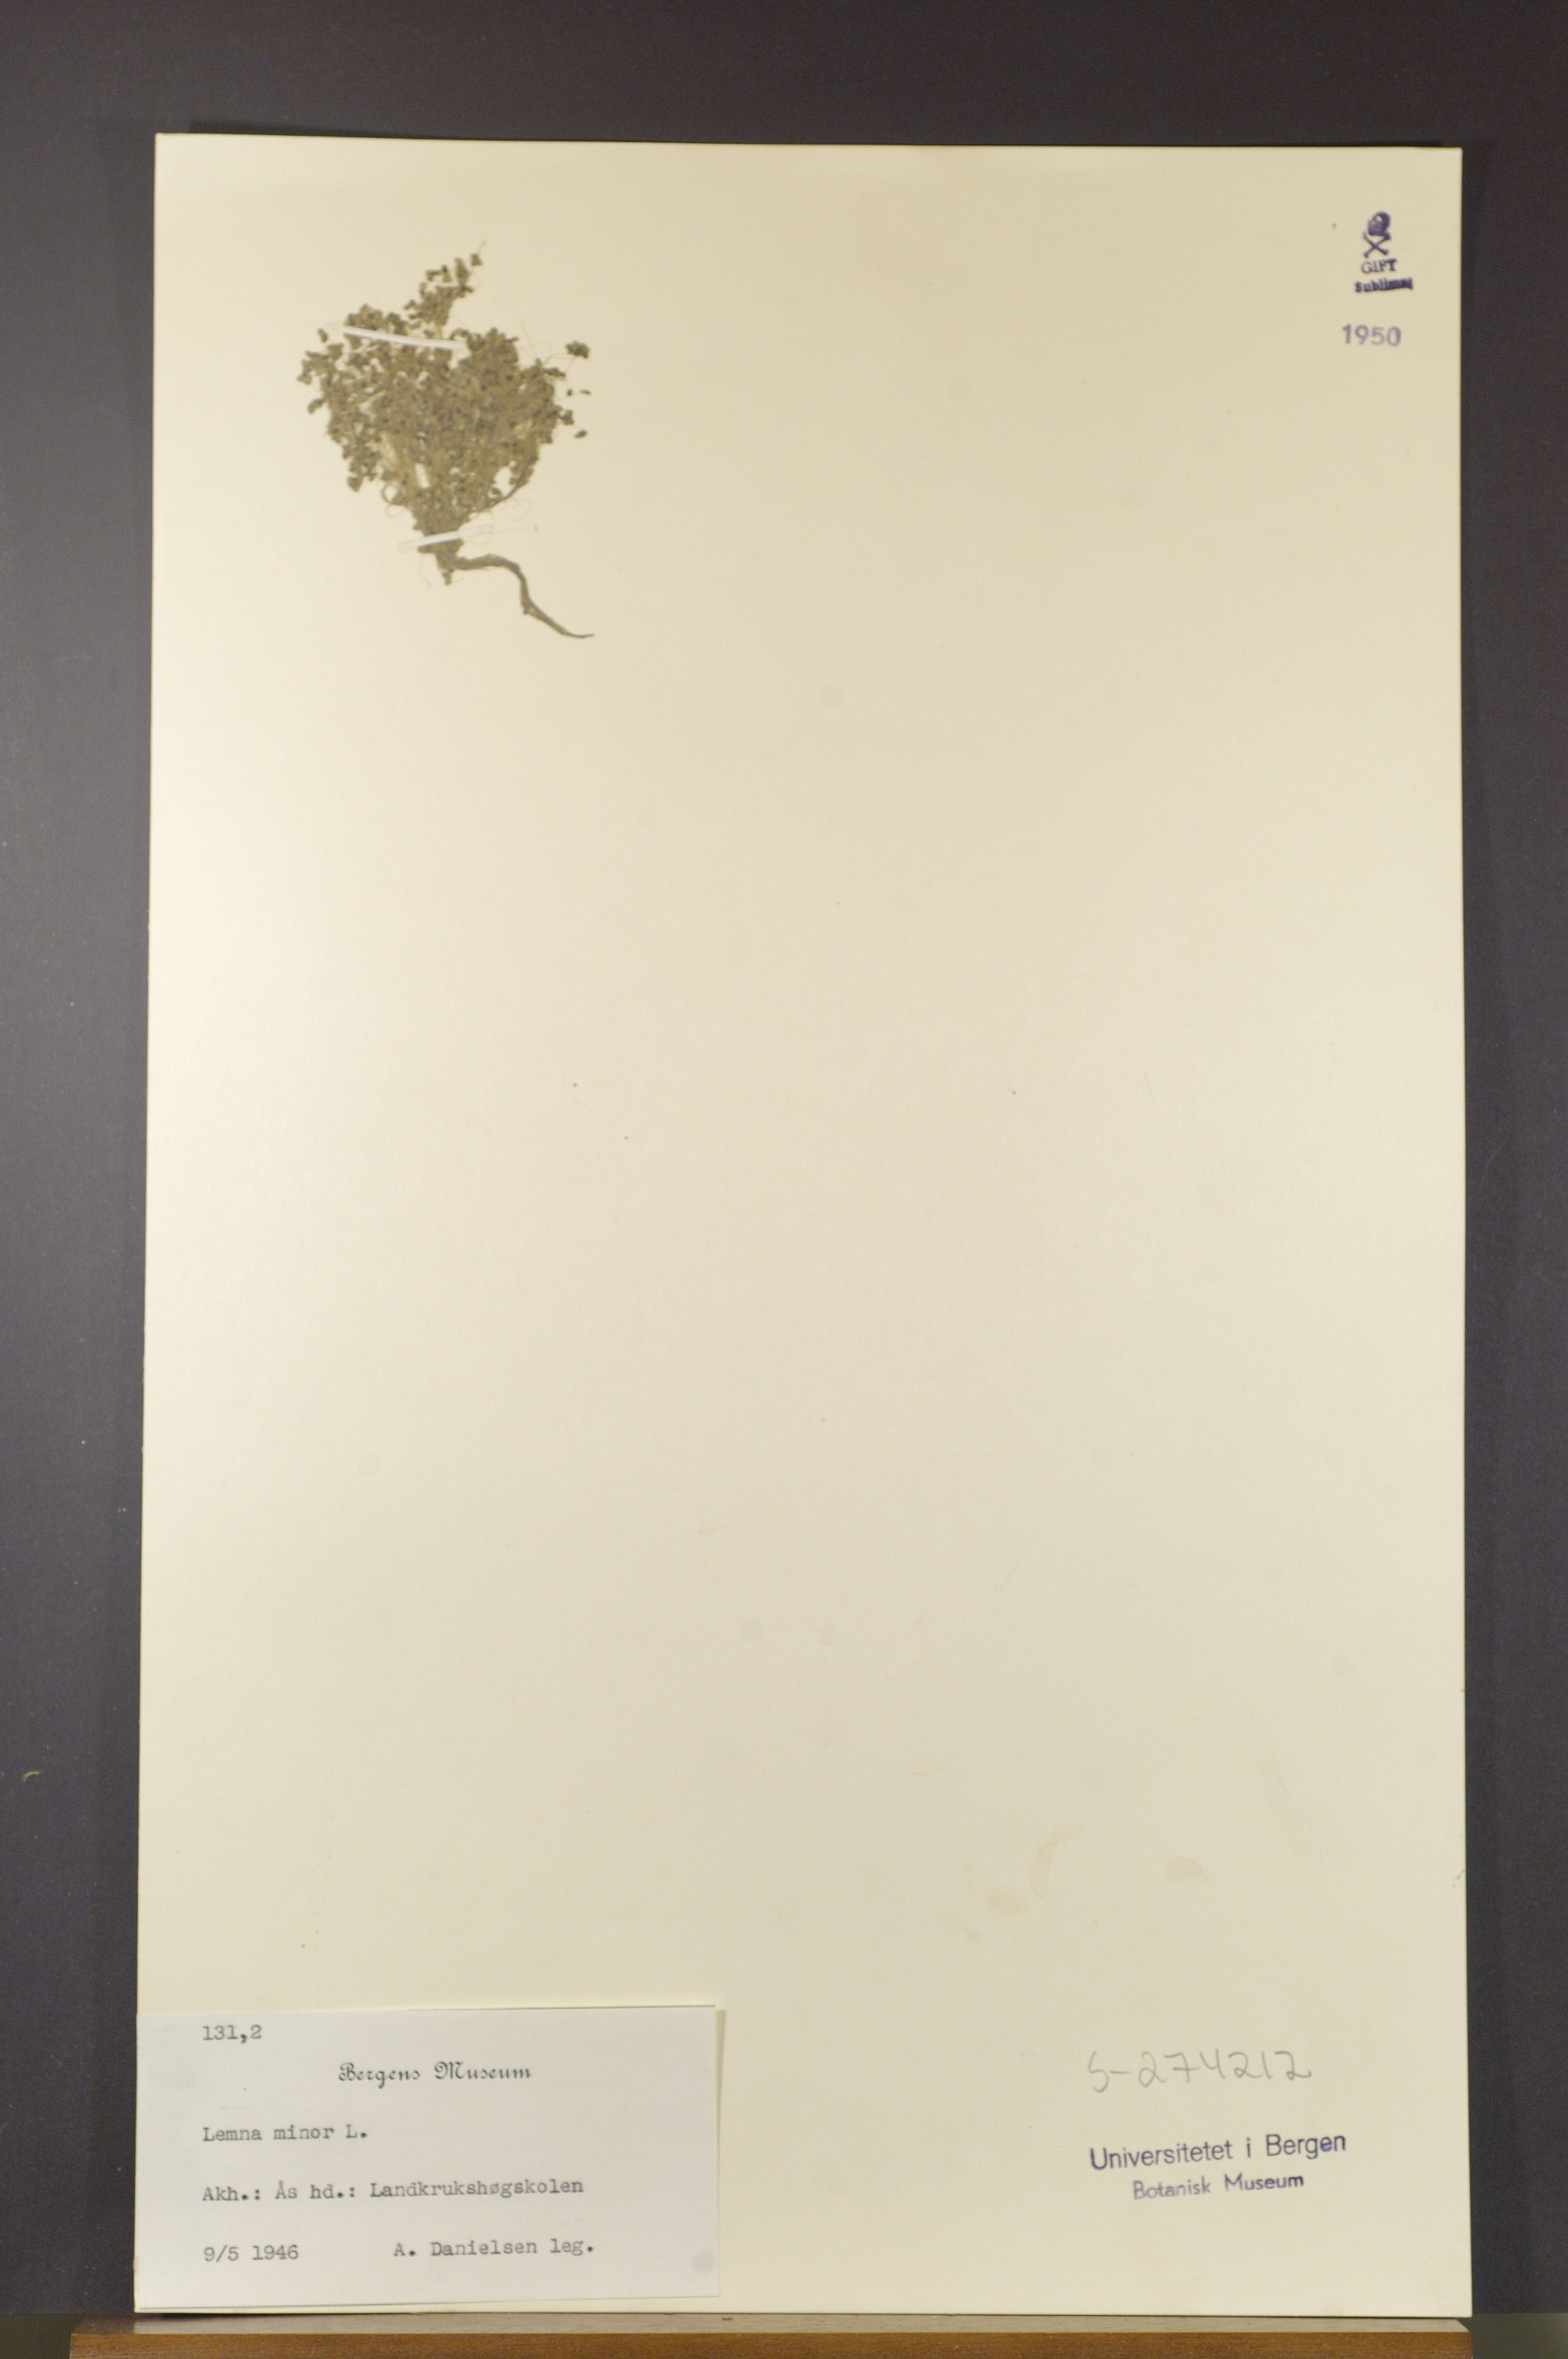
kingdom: Plantae
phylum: Tracheophyta
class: Liliopsida
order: Alismatales
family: Araceae
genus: Lemna
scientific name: Lemna minor
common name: Common duckweed
